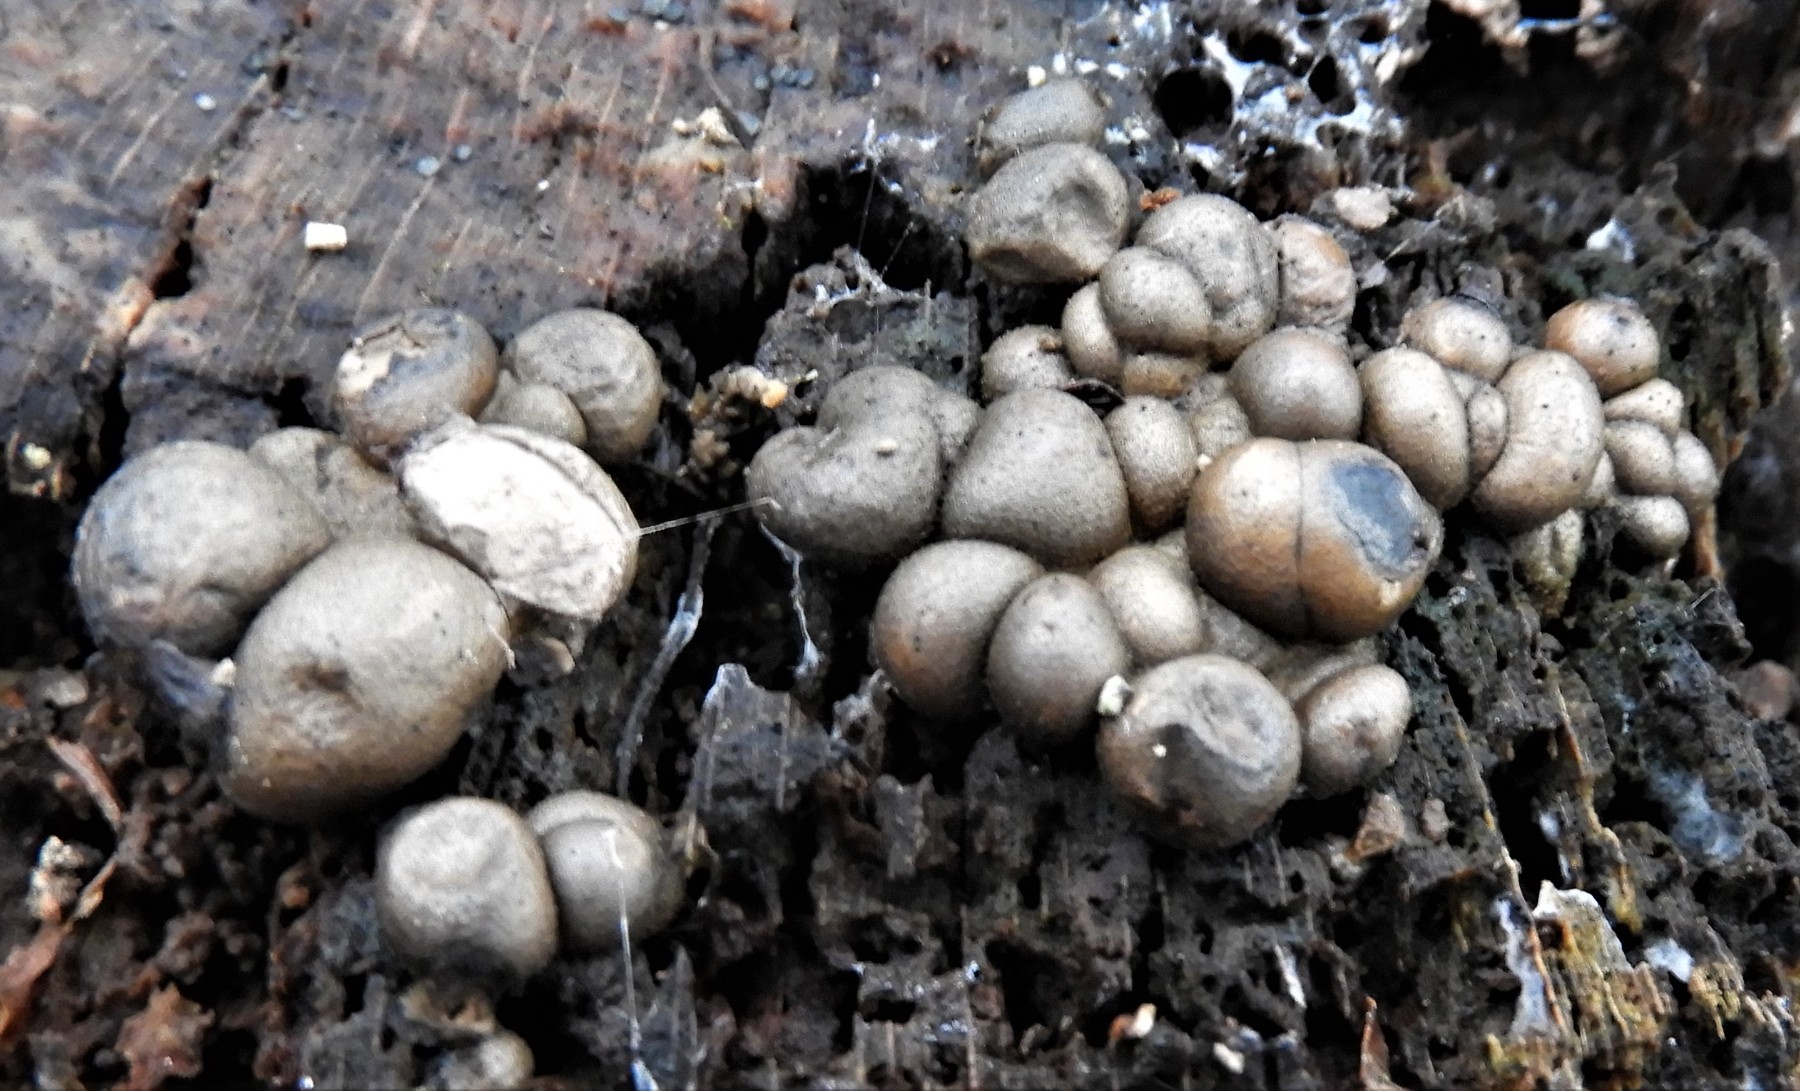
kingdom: Protozoa
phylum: Mycetozoa
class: Myxomycetes
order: Cribrariales
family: Tubiferaceae
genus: Lycogala
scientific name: Lycogala epidendrum
